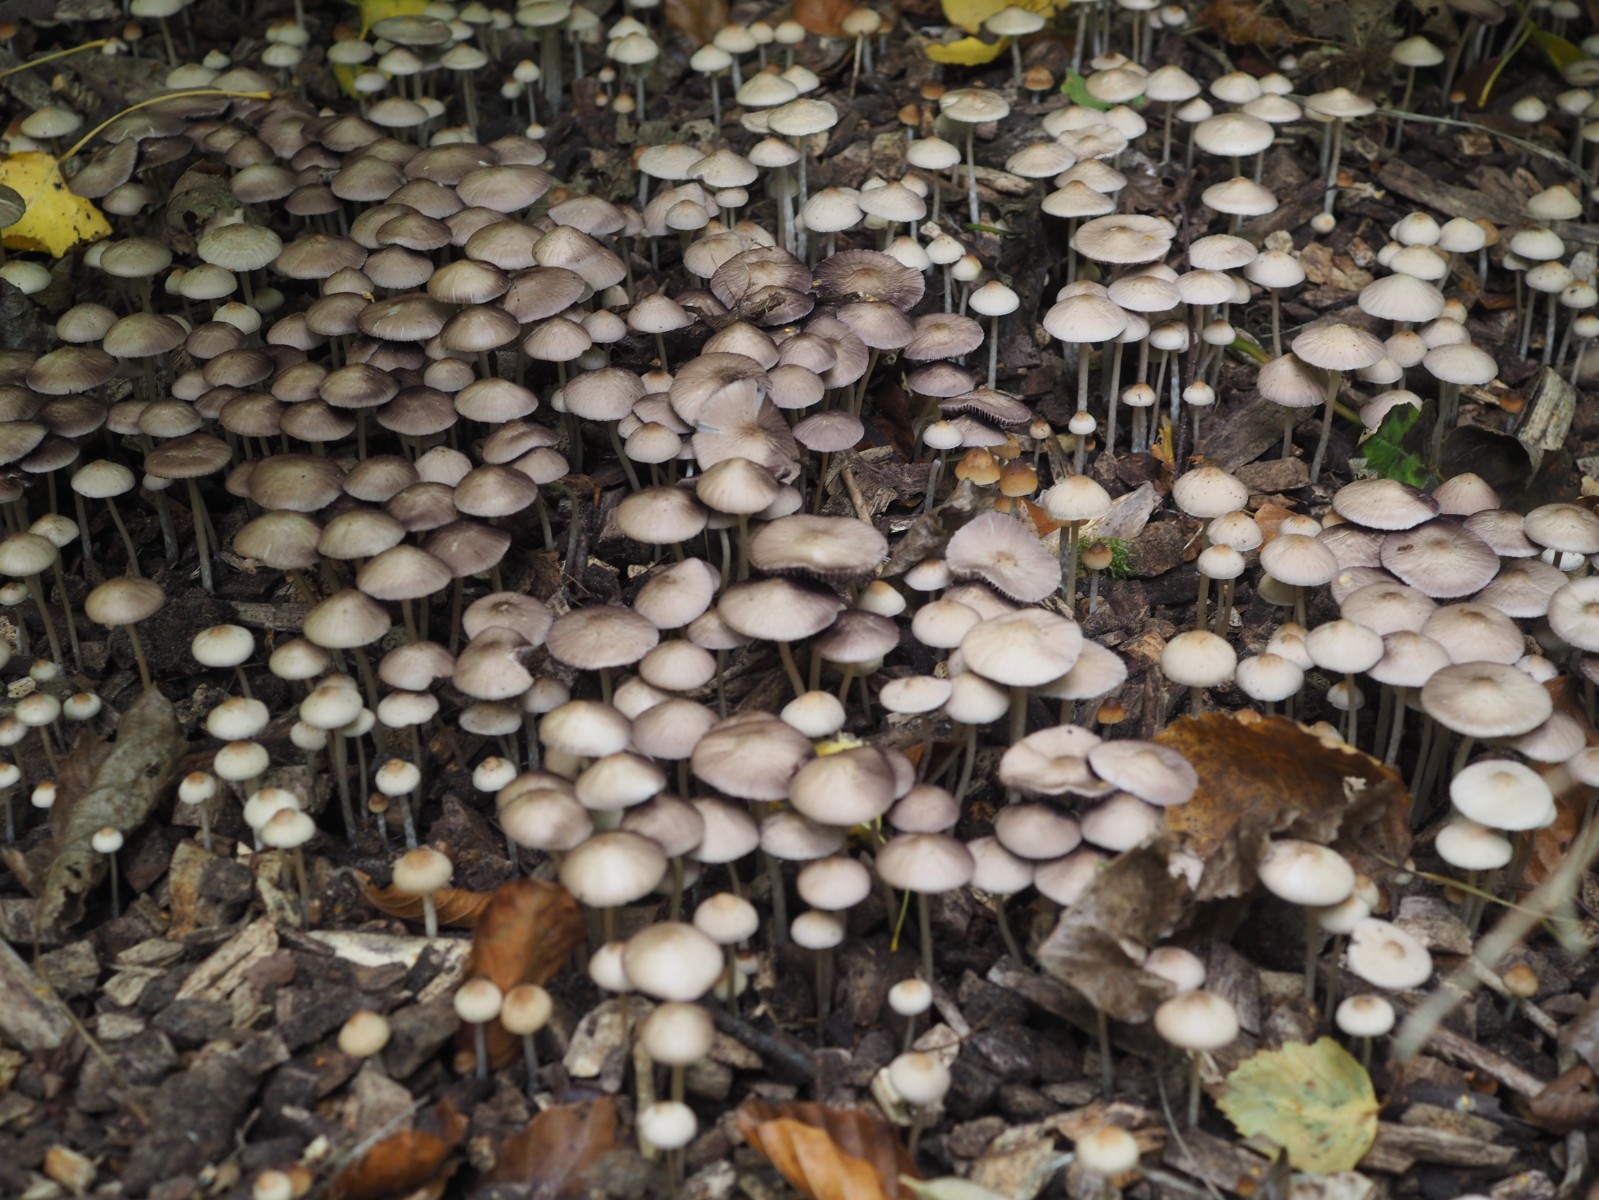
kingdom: Fungi
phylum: Basidiomycota
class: Agaricomycetes
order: Agaricales
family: Psathyrellaceae
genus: Psathyrella
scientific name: Psathyrella corrugis
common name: rødægget mørkhat
